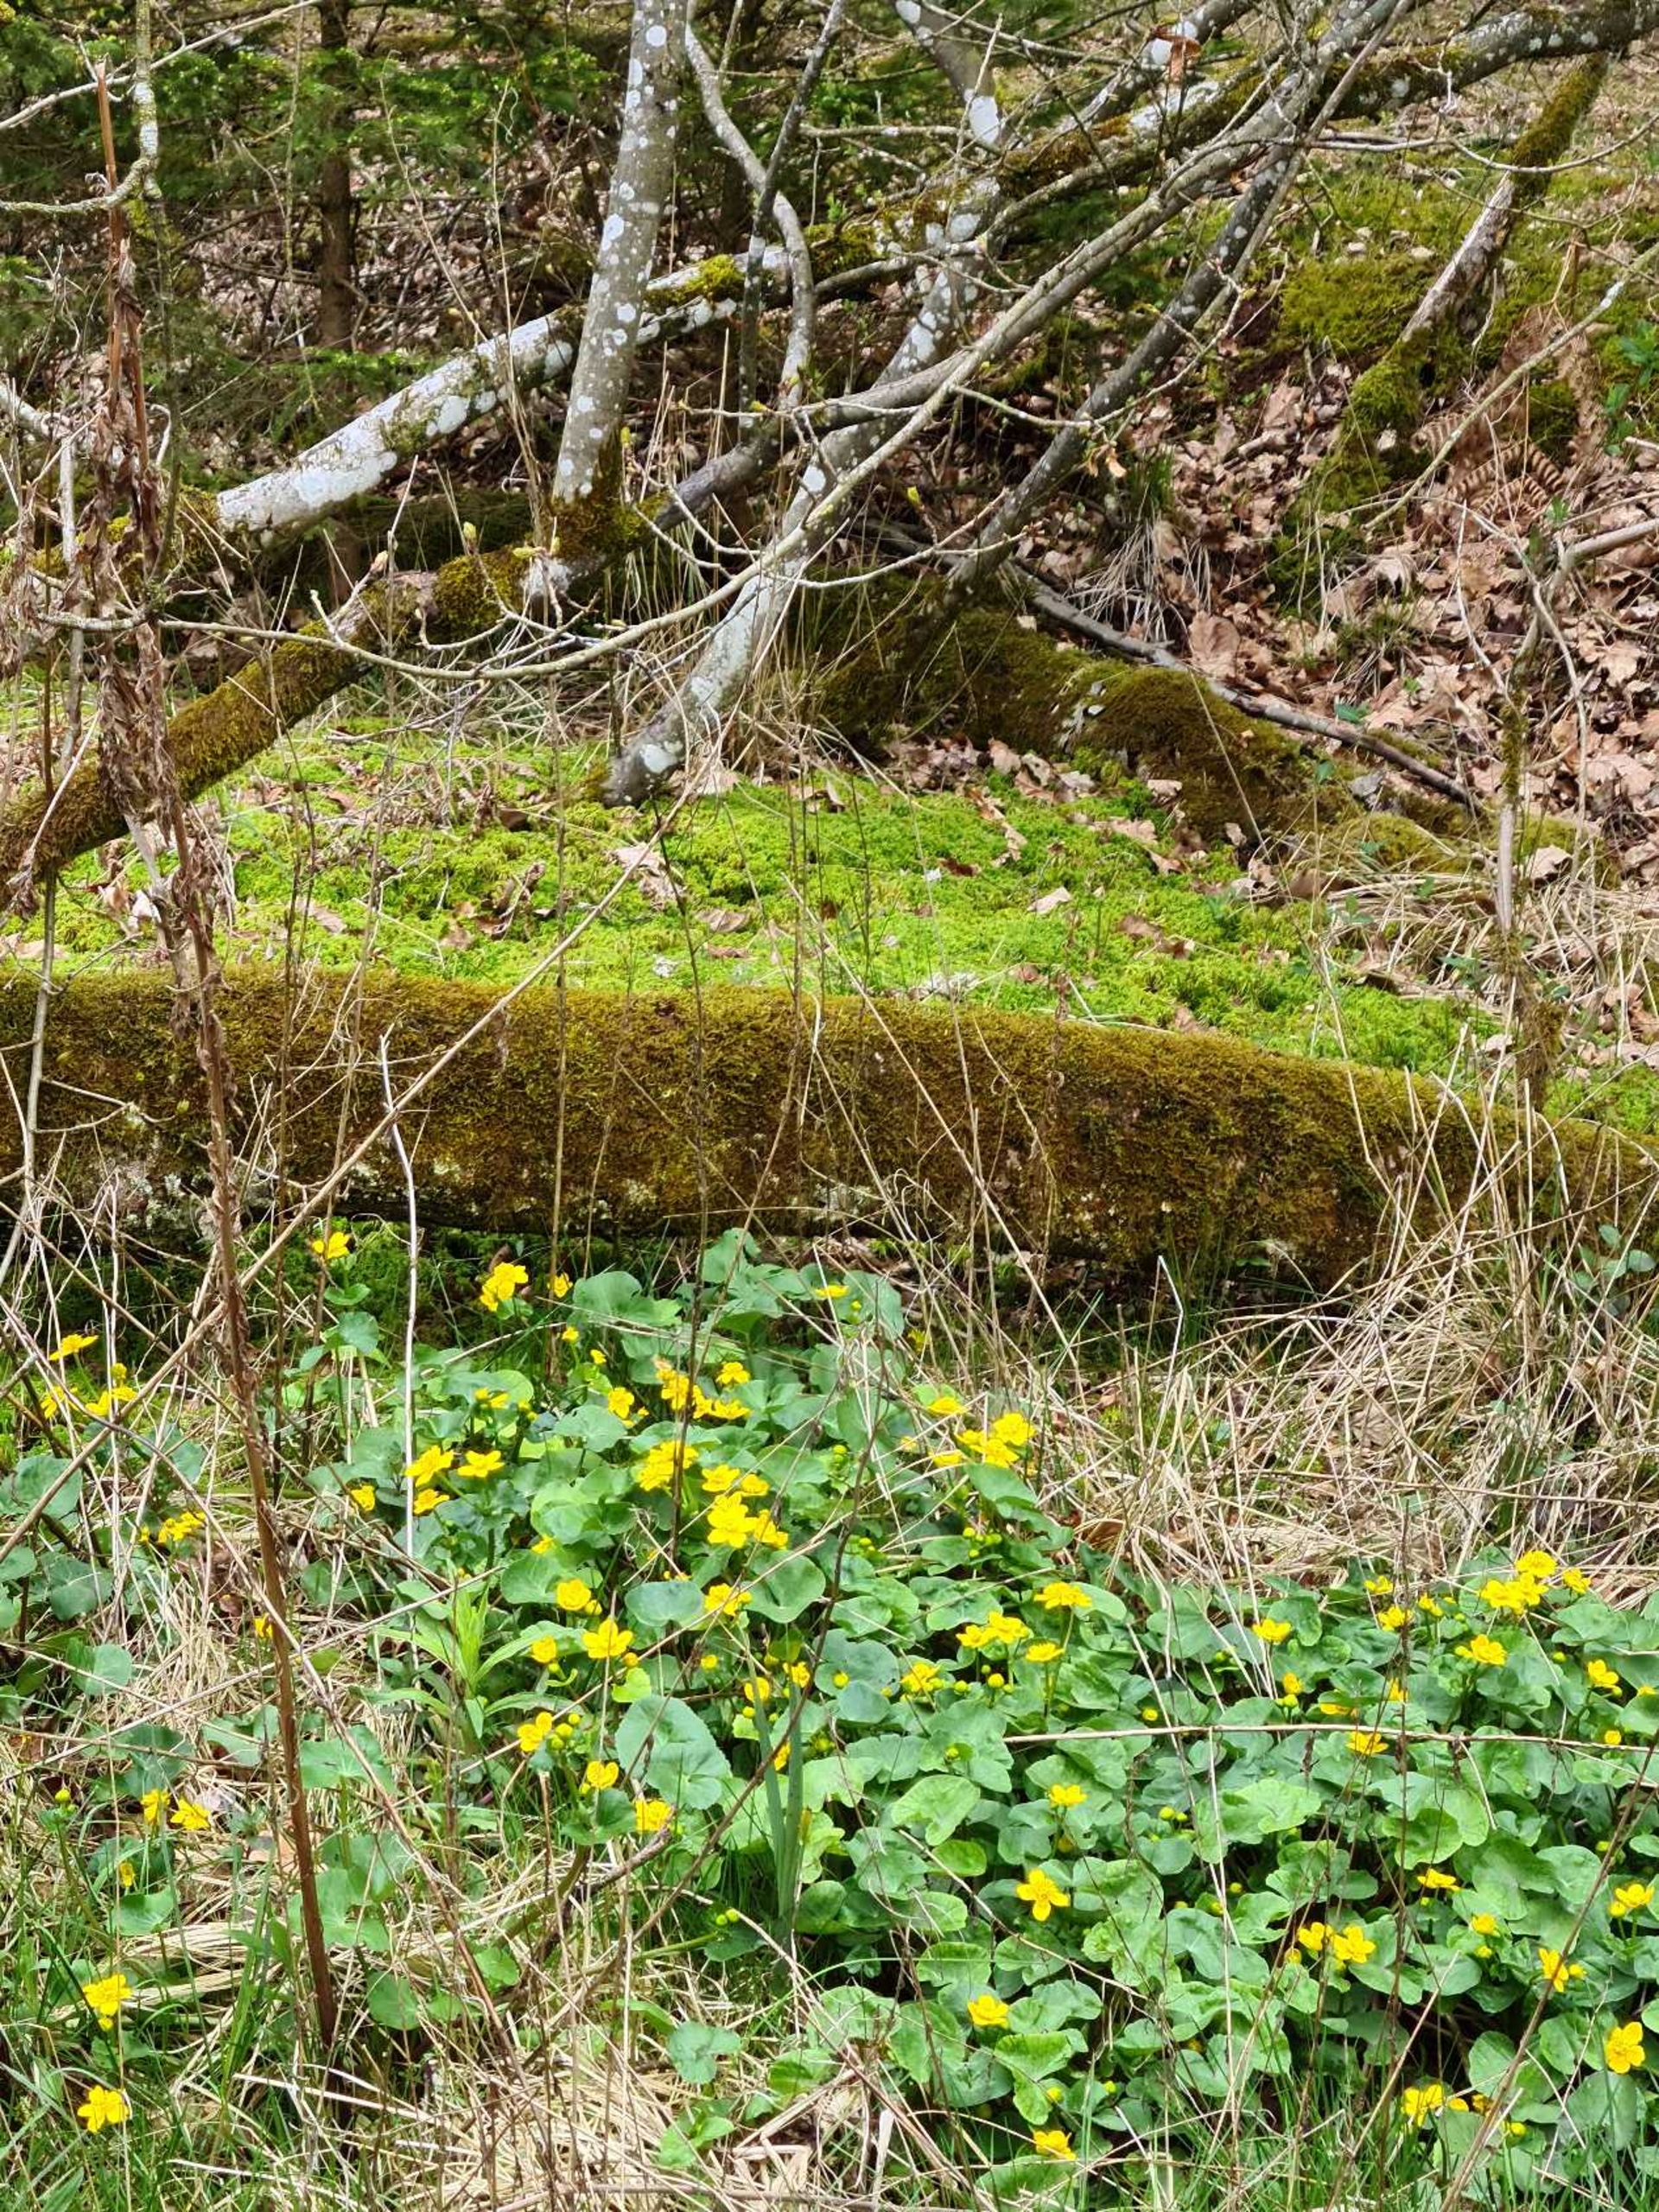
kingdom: Plantae
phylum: Tracheophyta
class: Magnoliopsida
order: Ranunculales
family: Ranunculaceae
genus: Caltha
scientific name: Caltha palustris
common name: Eng-kabbeleje
